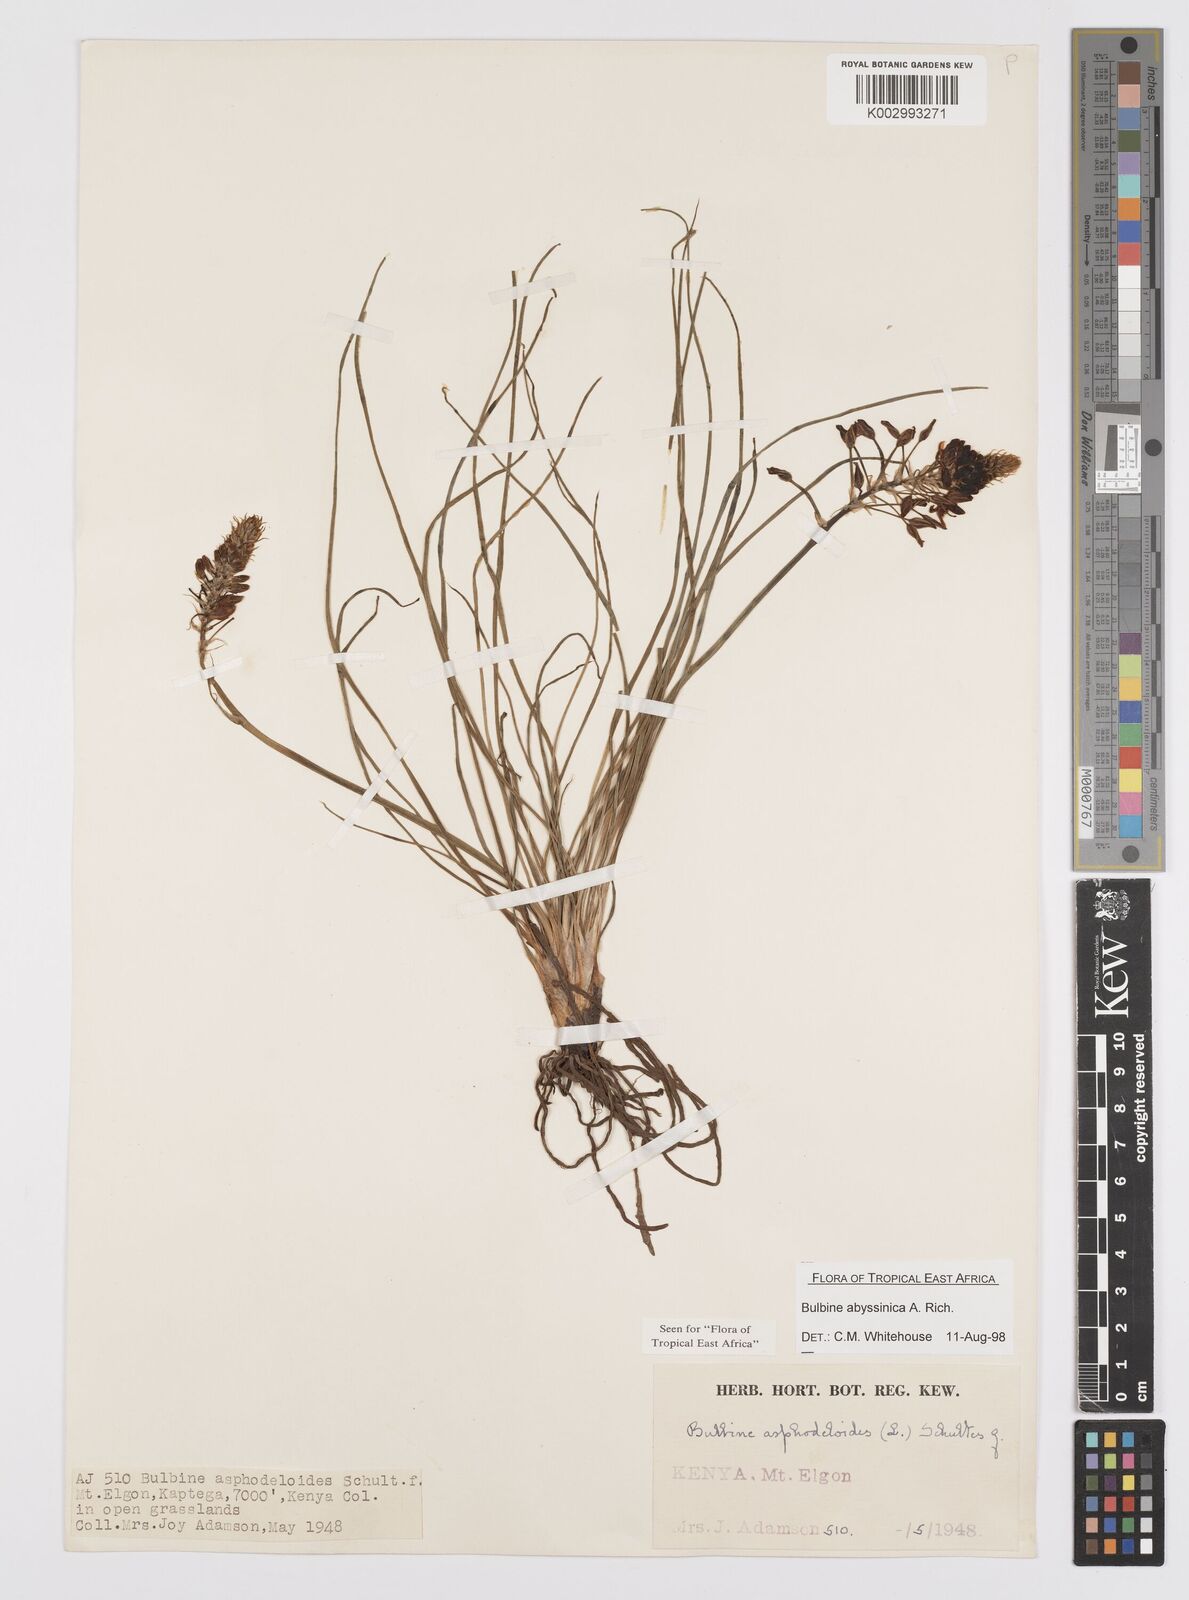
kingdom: Plantae
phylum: Tracheophyta
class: Liliopsida
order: Asparagales
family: Asphodelaceae
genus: Bulbine
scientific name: Bulbine abyssinica
